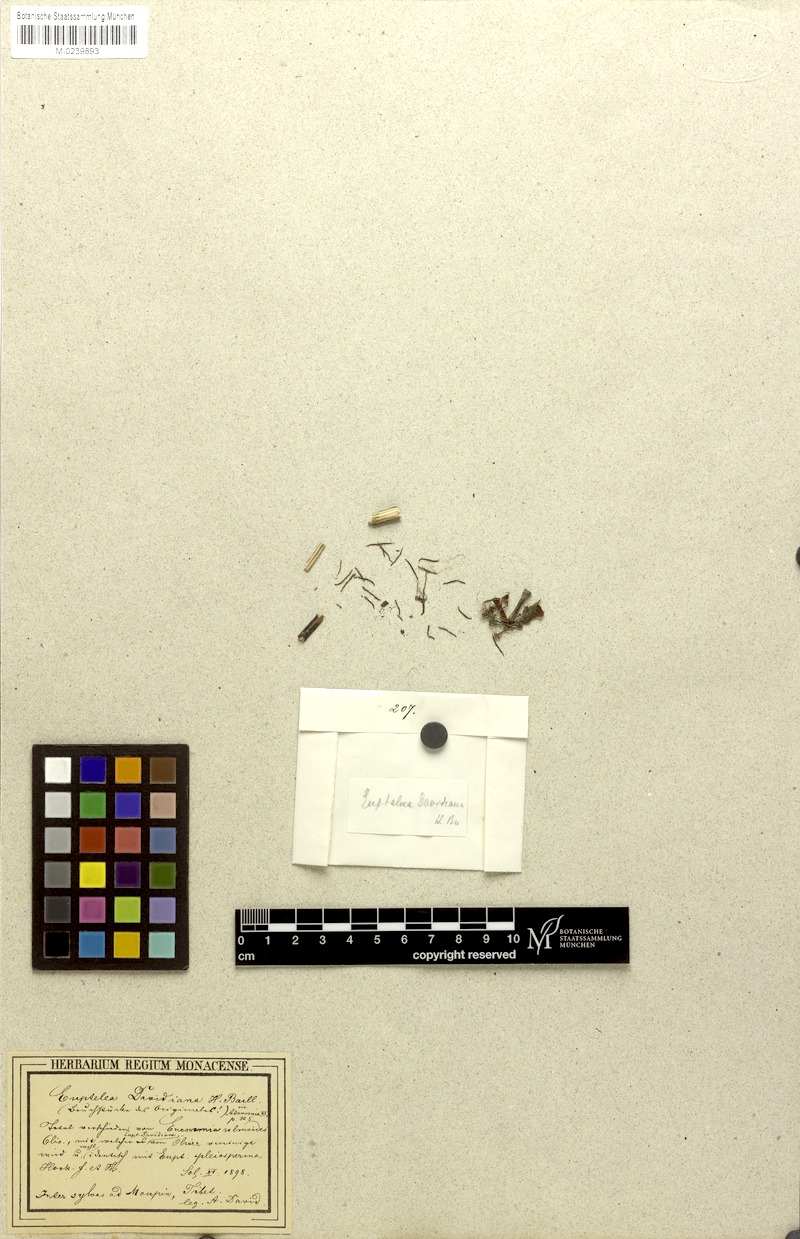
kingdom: Plantae
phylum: Tracheophyta
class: Magnoliopsida
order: Ranunculales
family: Eupteleaceae
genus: Euptelea
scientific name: Euptelea pleiosperma
